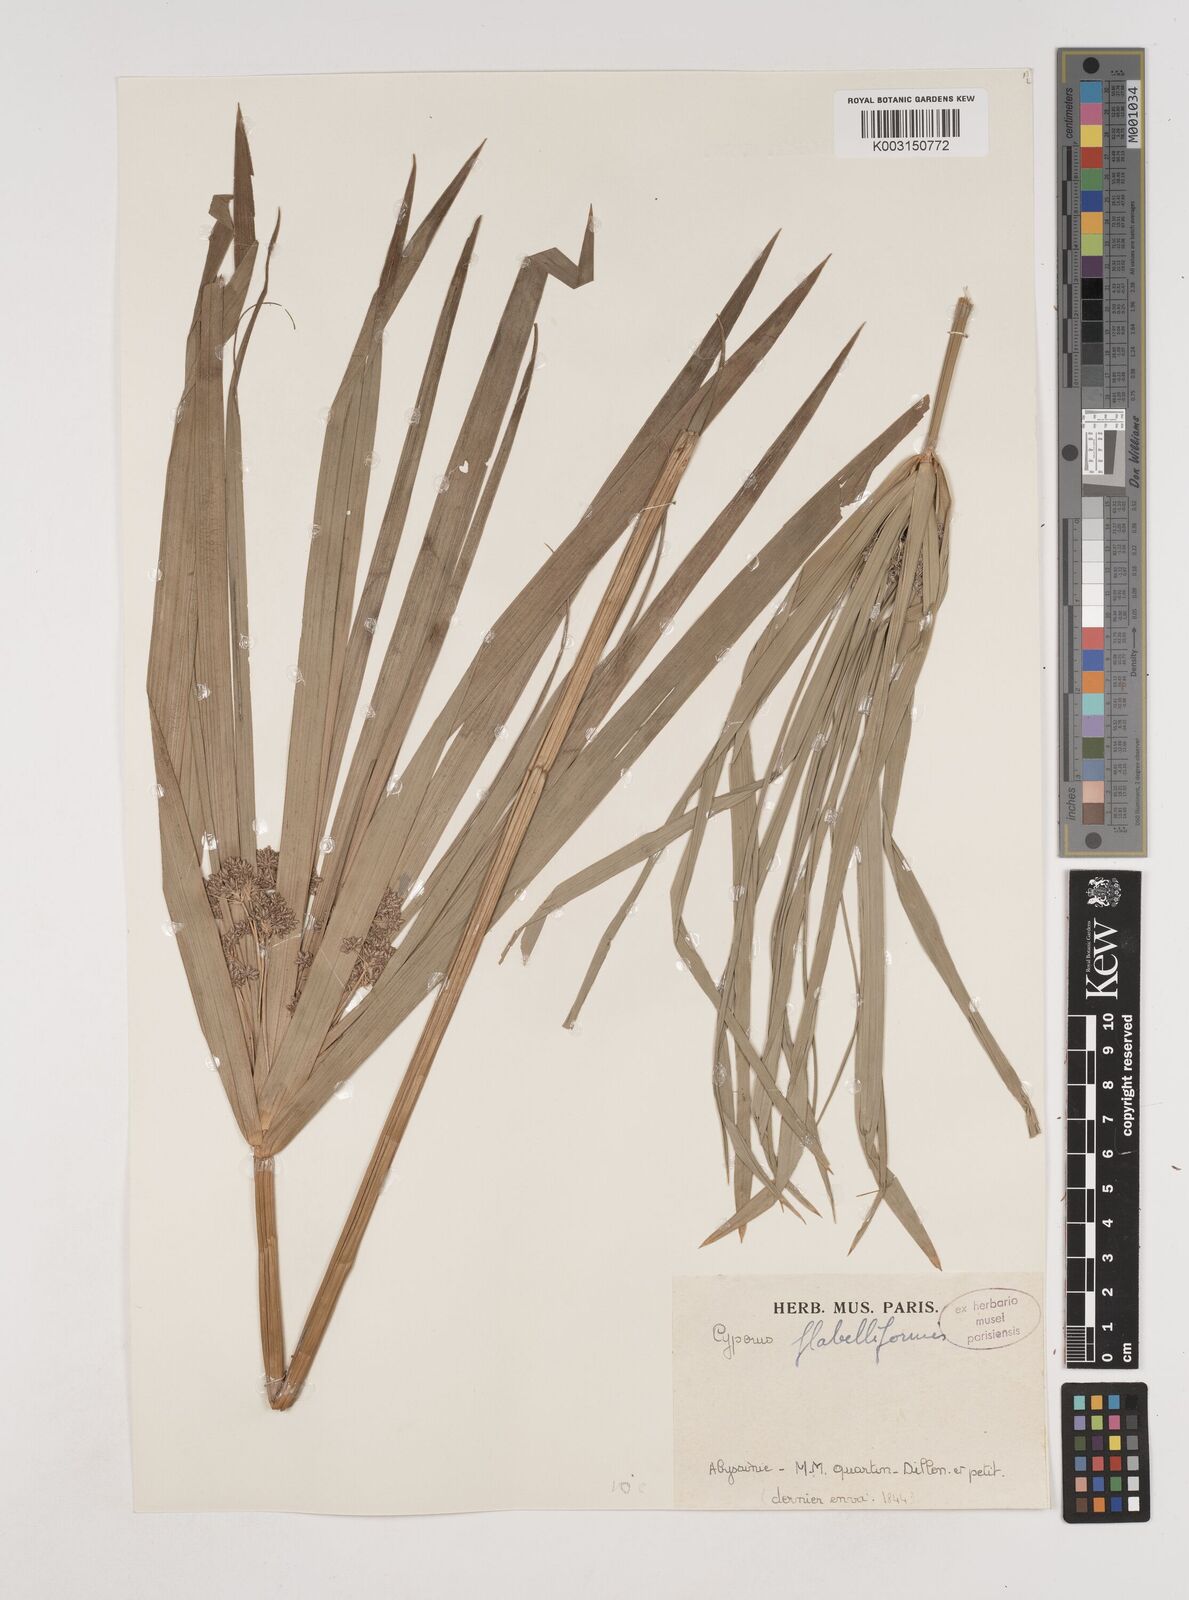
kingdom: Plantae
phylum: Tracheophyta
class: Liliopsida
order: Poales
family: Cyperaceae
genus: Cyperus
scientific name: Cyperus alternifolius
